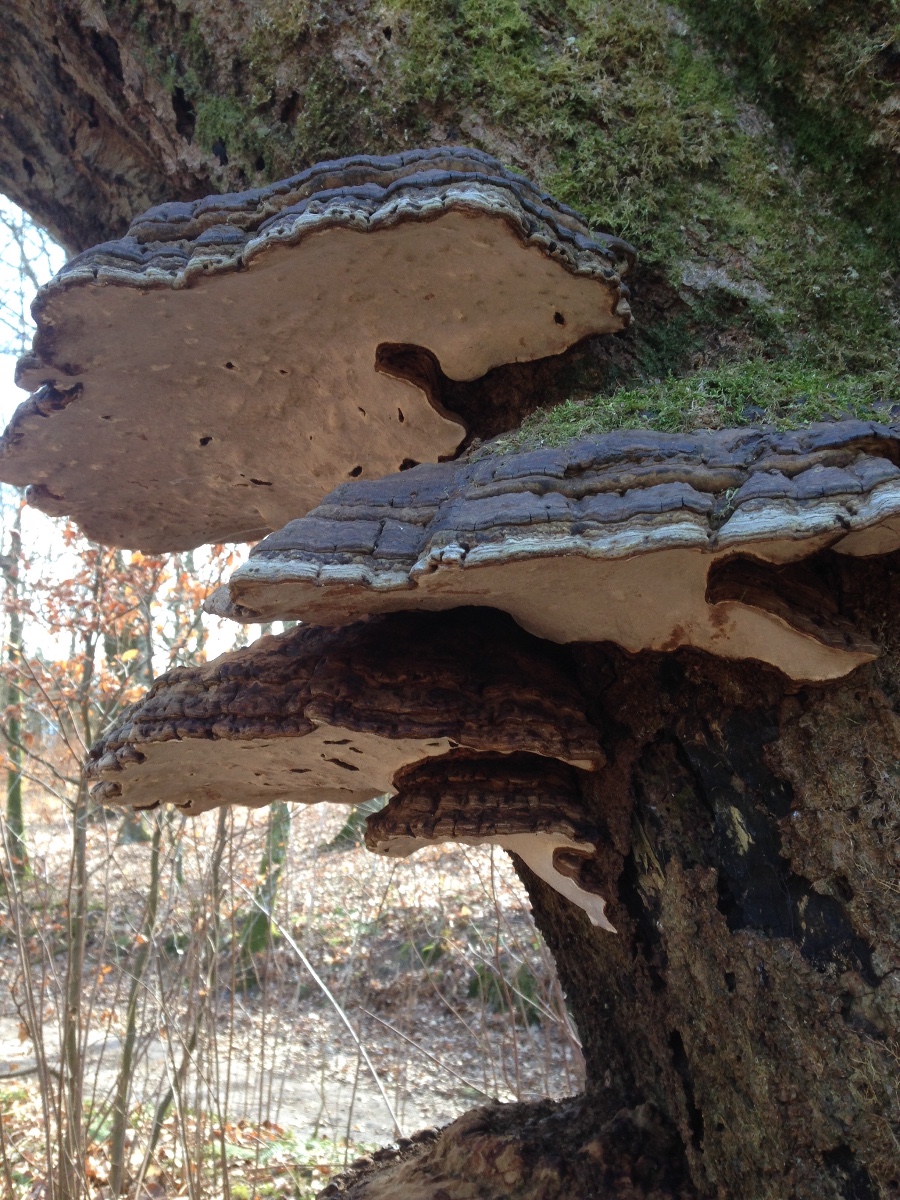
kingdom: Fungi
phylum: Basidiomycota
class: Agaricomycetes
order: Polyporales
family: Polyporaceae
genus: Fomes
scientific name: Fomes fomentarius
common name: tøndersvamp
